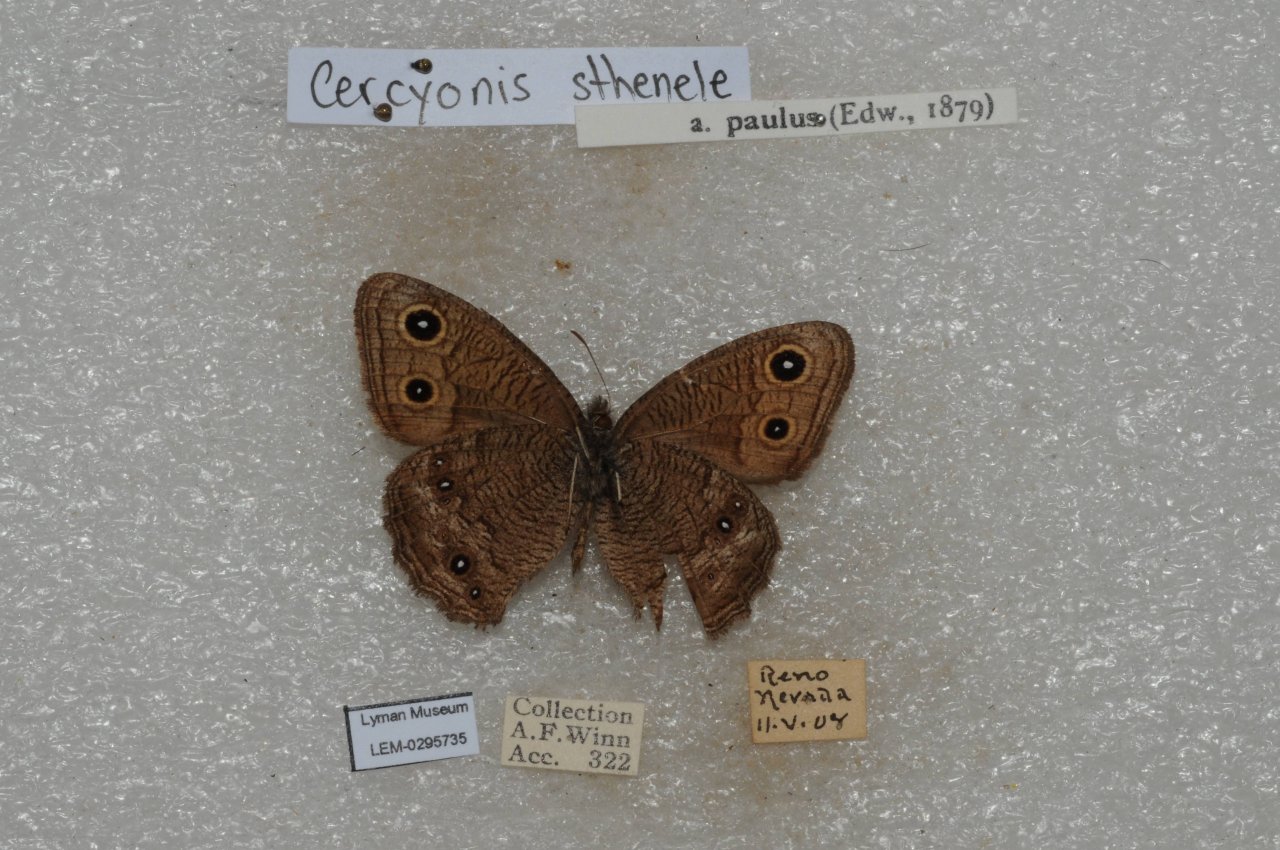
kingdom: Animalia
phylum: Arthropoda
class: Insecta
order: Lepidoptera
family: Nymphalidae
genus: Cercyonis
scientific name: Cercyonis sthenele
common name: Great Basin Wood-Nymph
